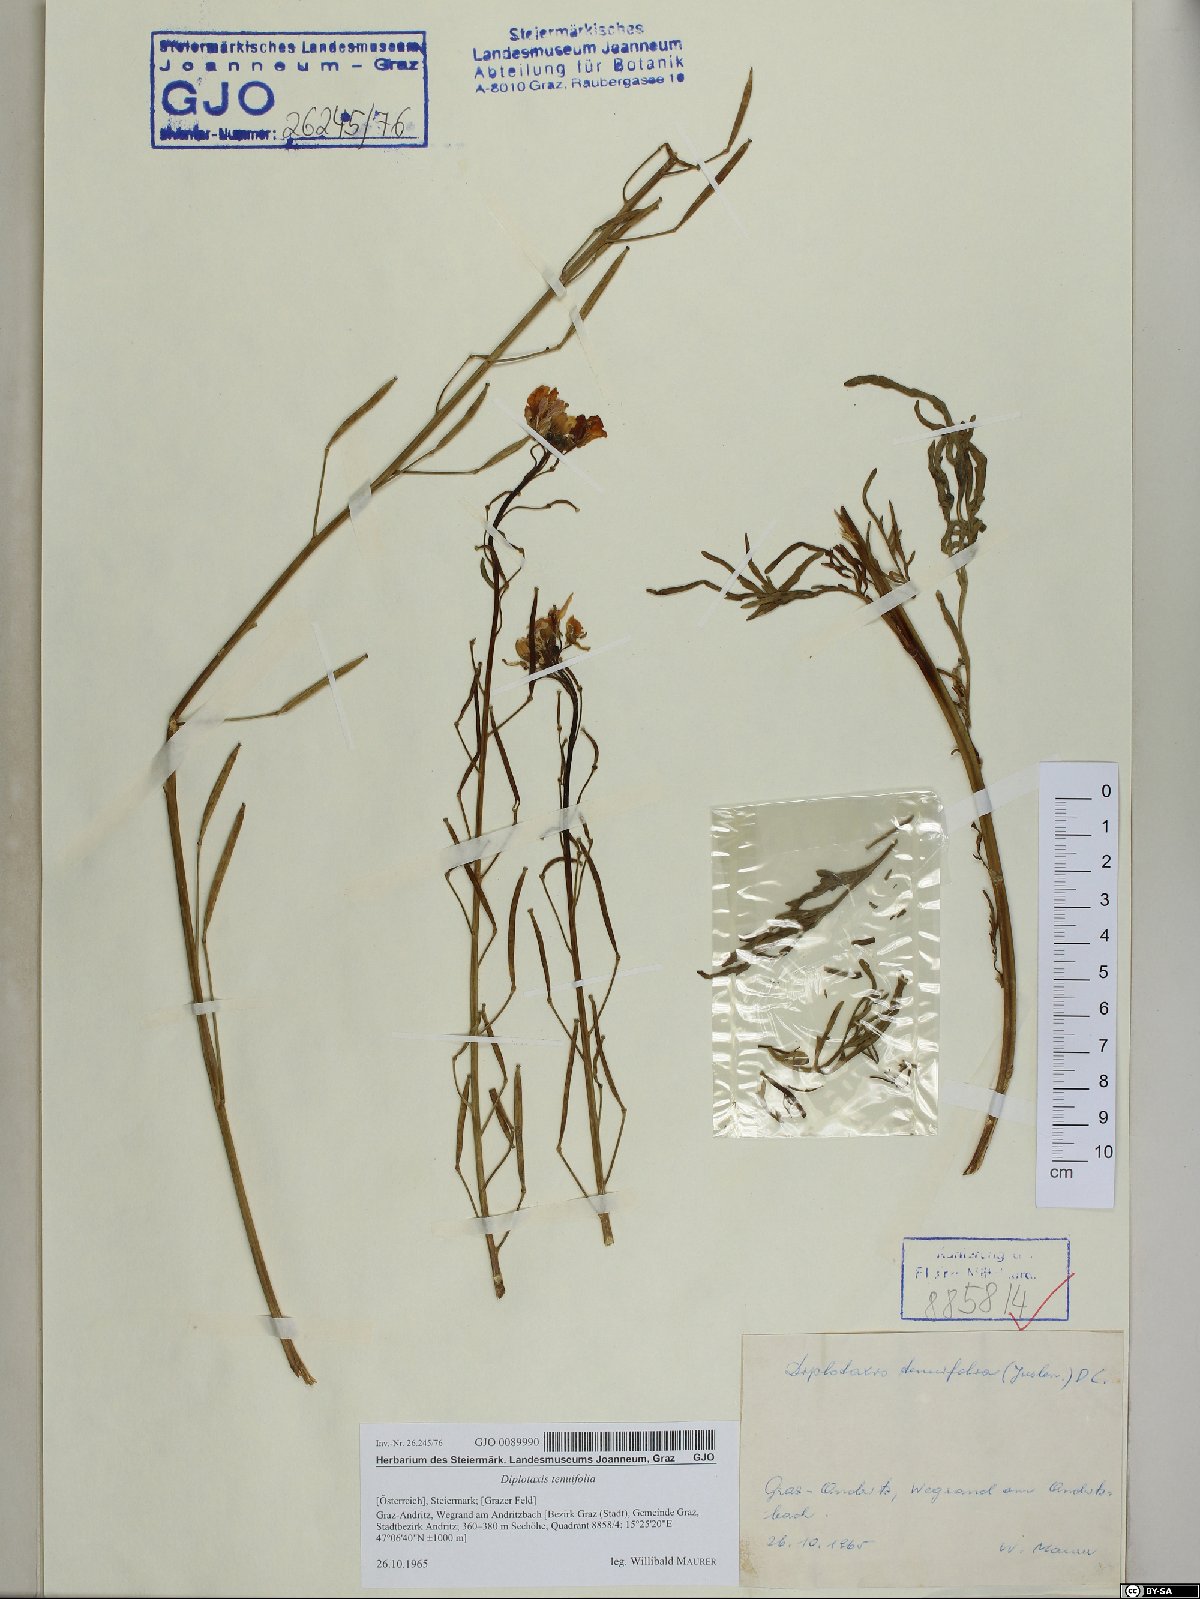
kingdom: Plantae
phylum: Tracheophyta
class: Magnoliopsida
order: Brassicales
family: Brassicaceae
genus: Diplotaxis
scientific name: Diplotaxis tenuifolia
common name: Perennial wall-rocket
